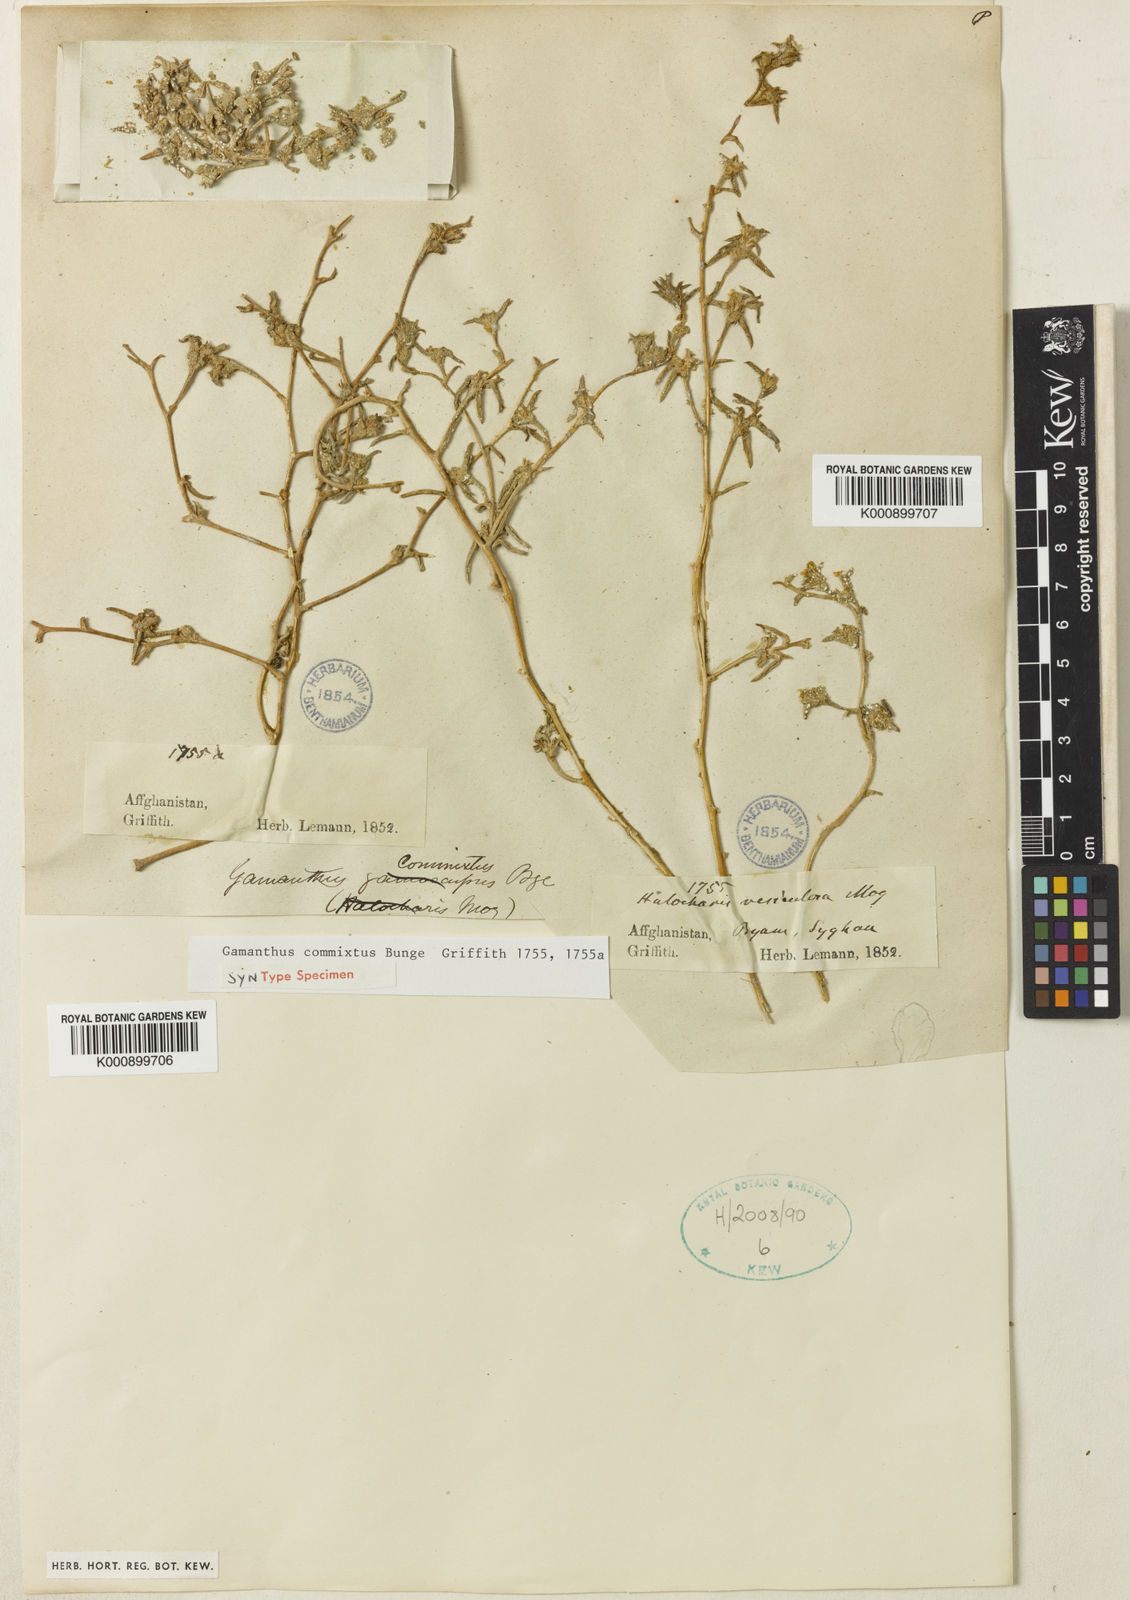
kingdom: Plantae
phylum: Tracheophyta
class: Magnoliopsida
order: Caryophyllales
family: Amaranthaceae
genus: Halimocnemis
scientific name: Halimocnemis commixtus
